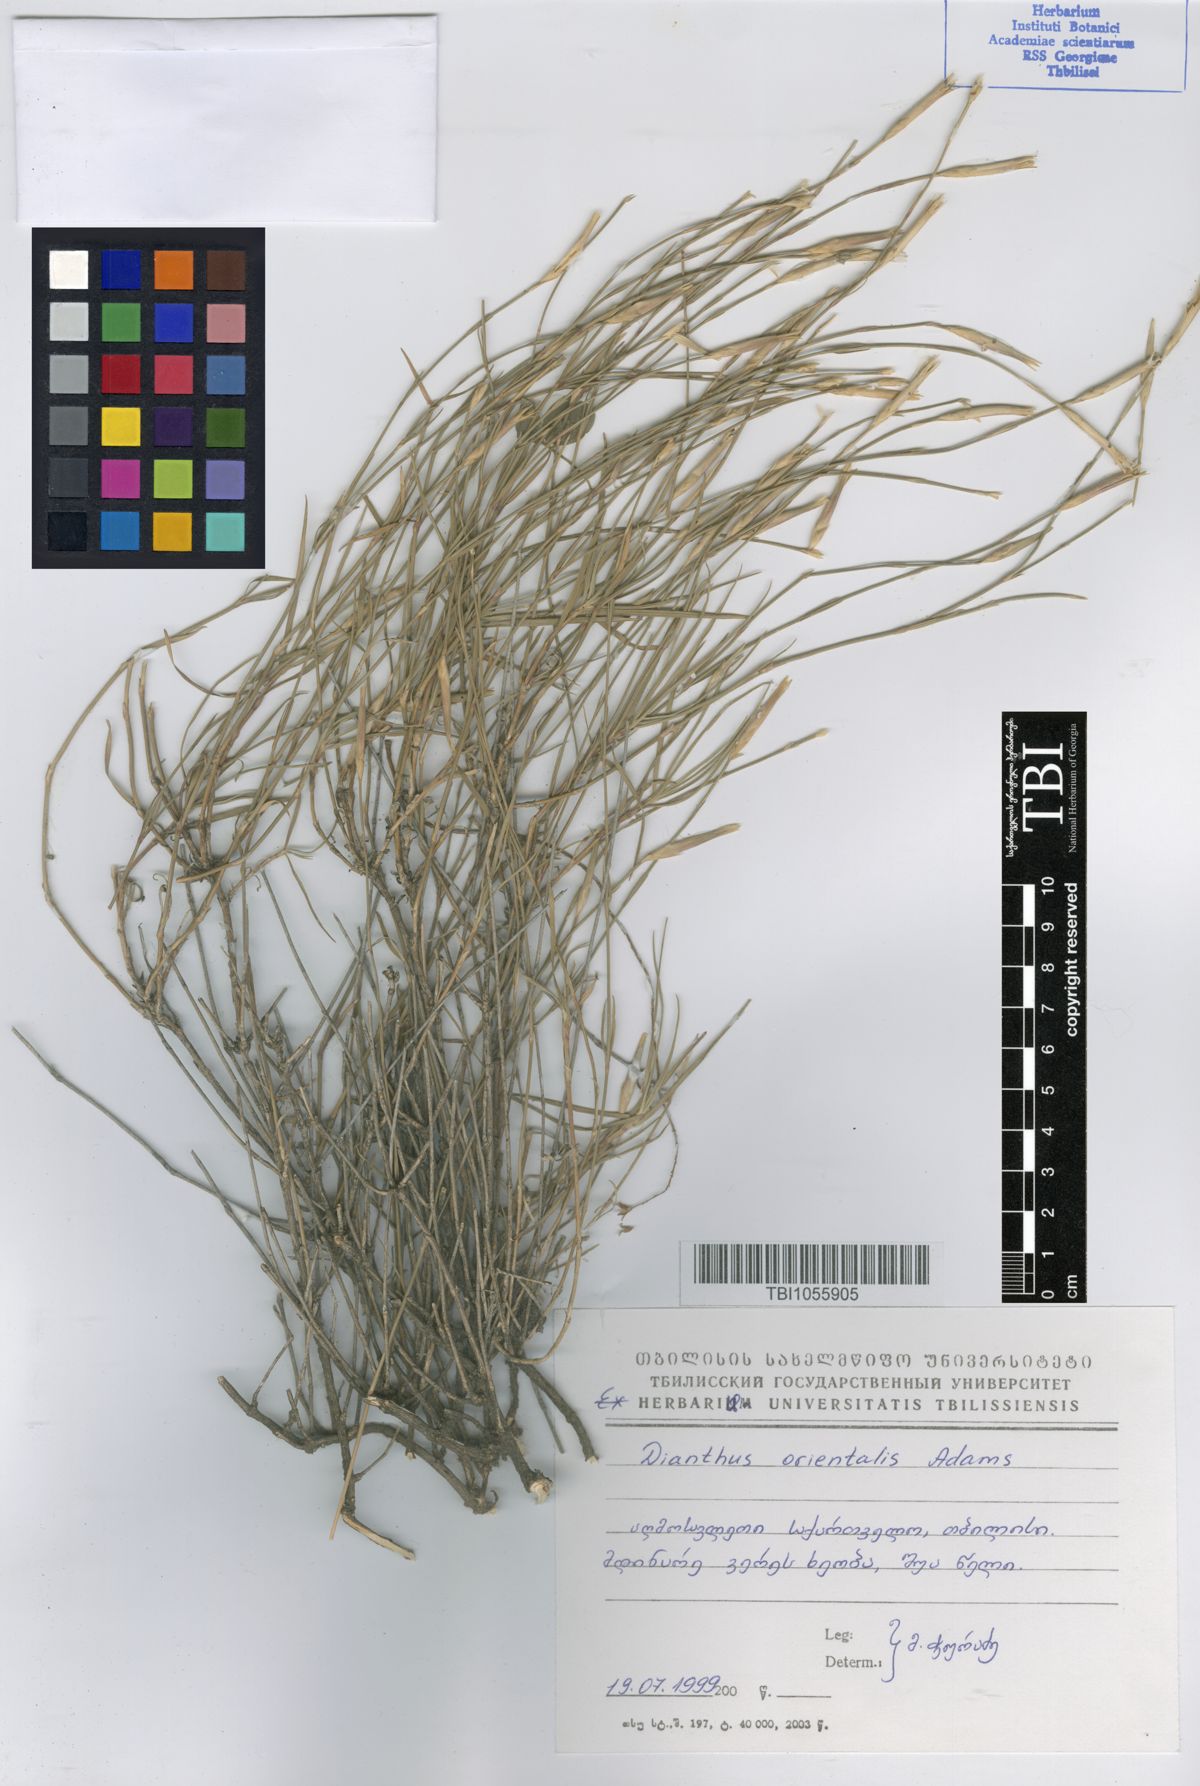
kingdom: Plantae
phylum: Tracheophyta
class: Magnoliopsida
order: Caryophyllales
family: Caryophyllaceae
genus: Dianthus
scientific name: Dianthus orientalis
